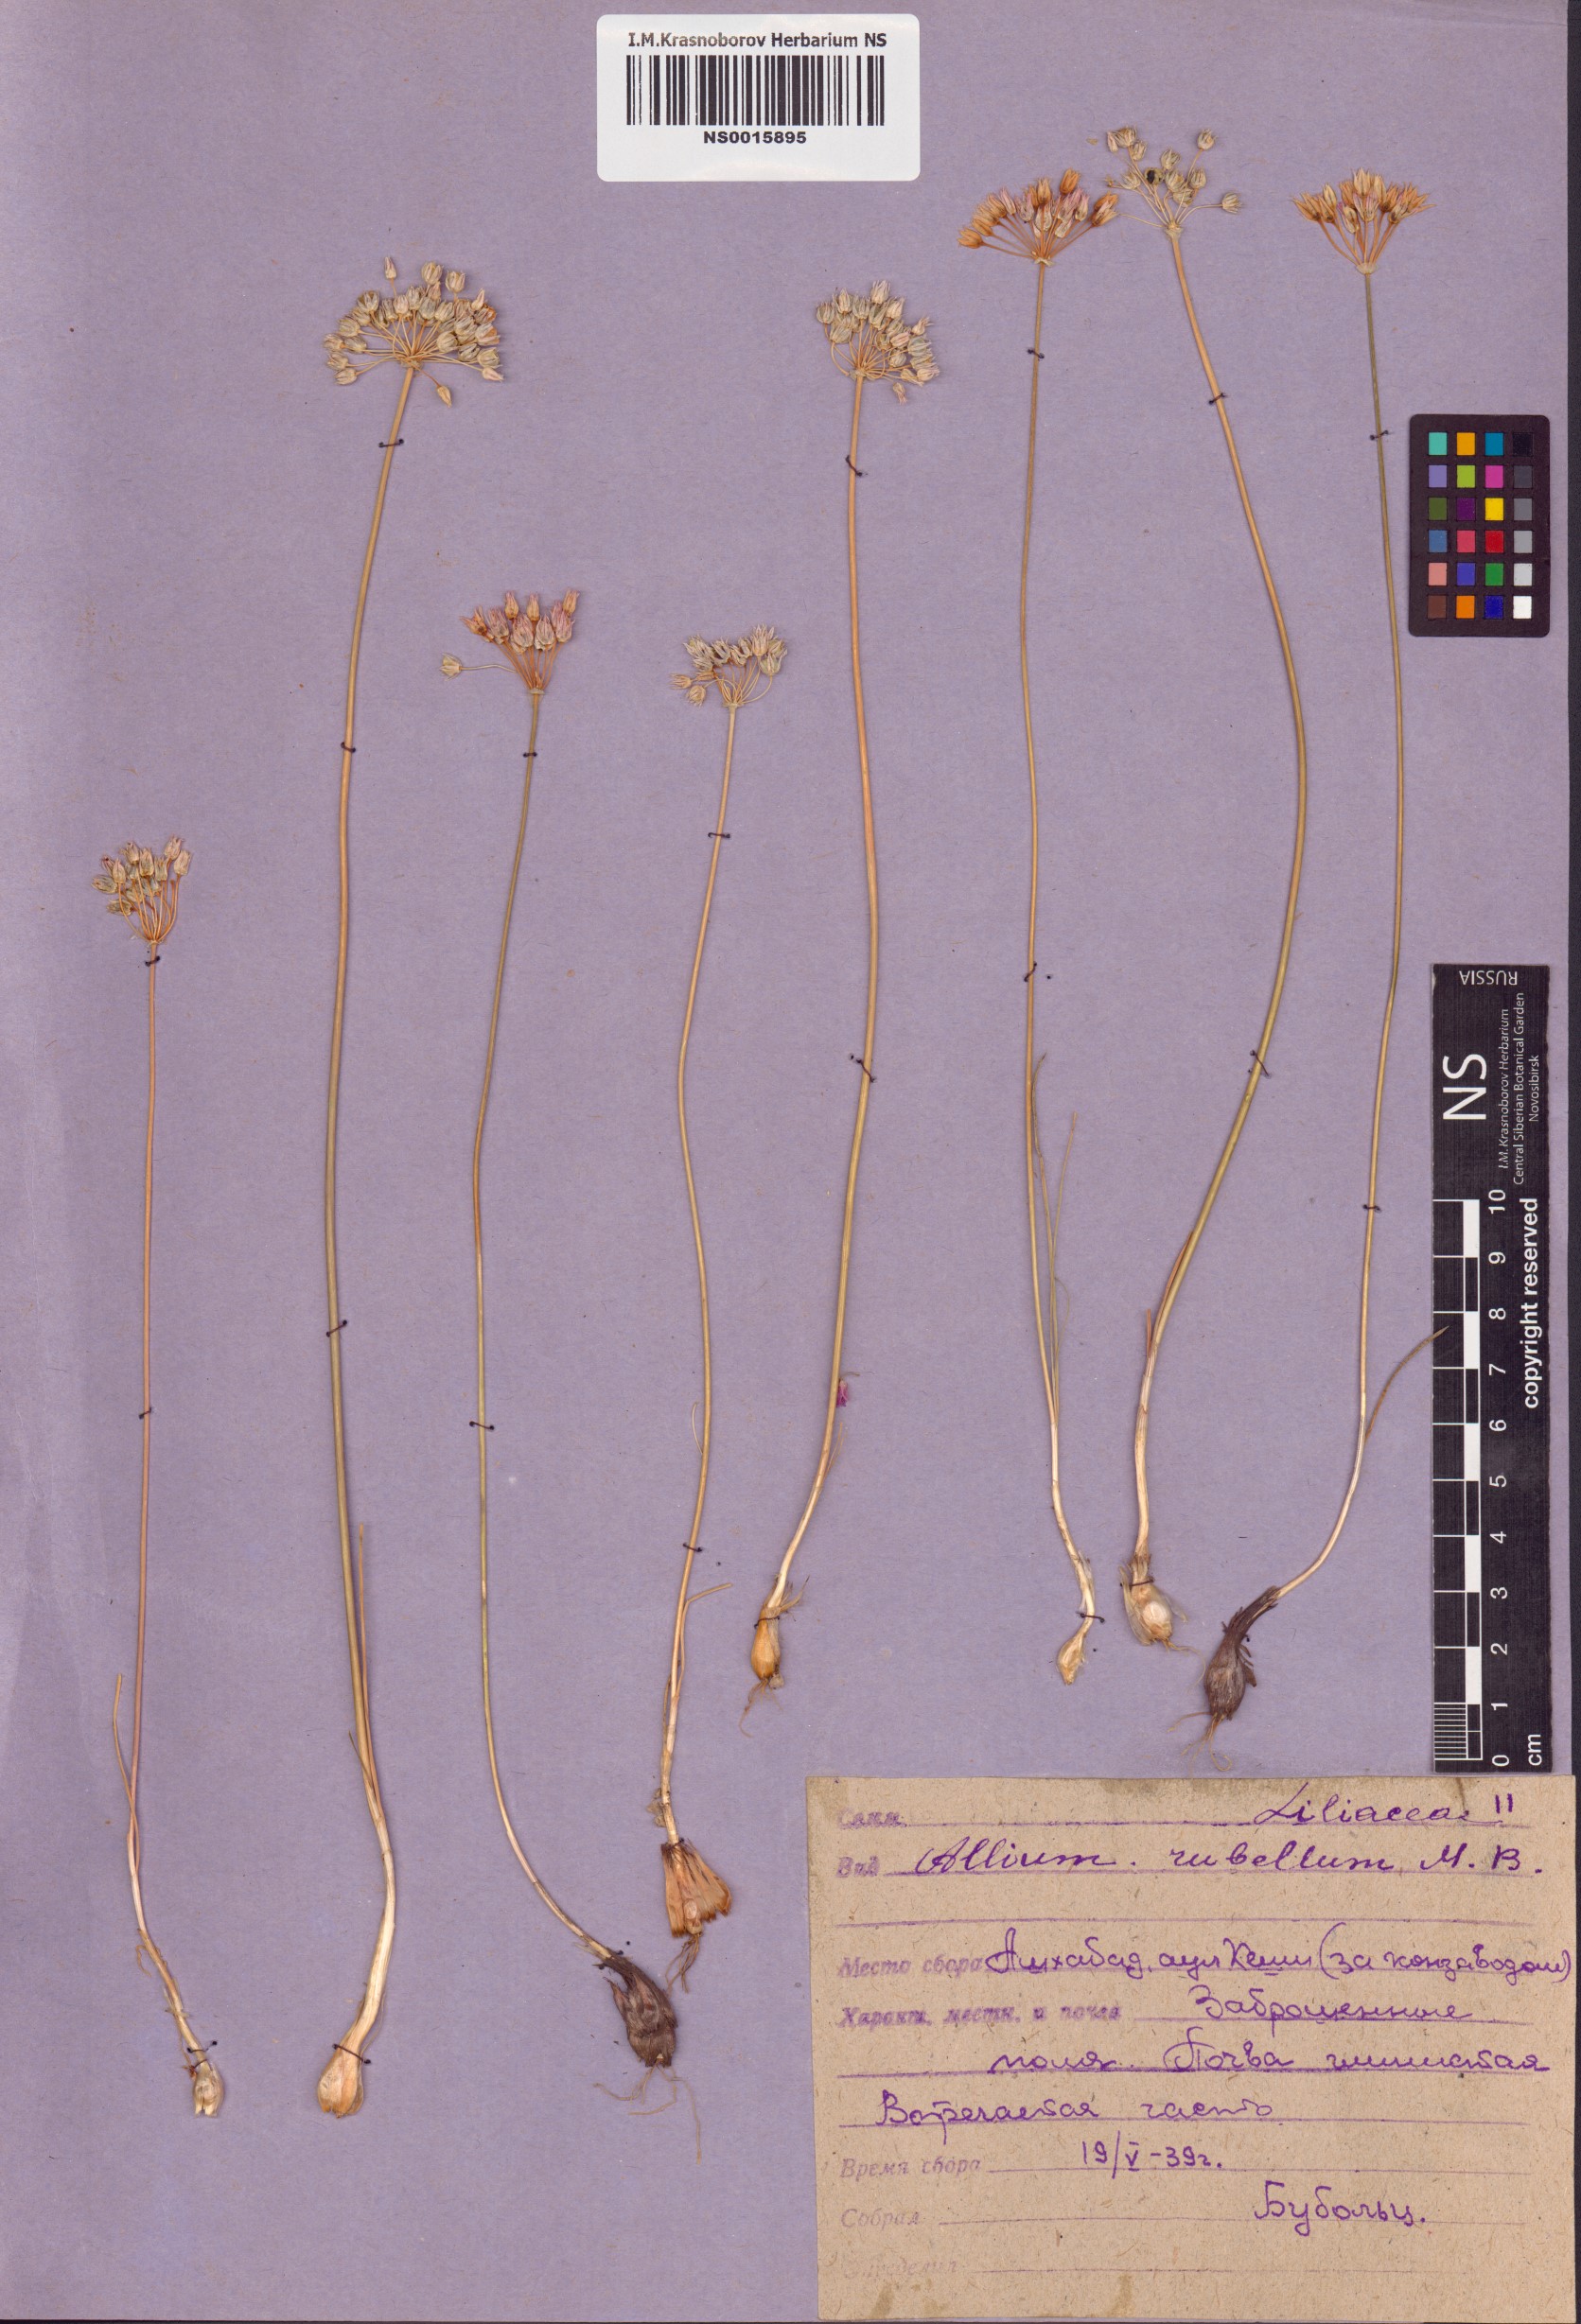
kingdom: Plantae
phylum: Tracheophyta
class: Liliopsida
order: Asparagales
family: Amaryllidaceae
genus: Allium
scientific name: Allium rubellum
